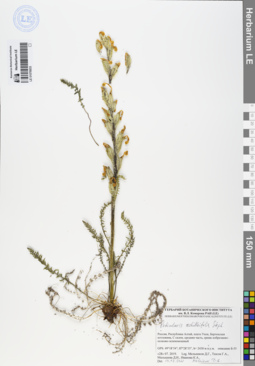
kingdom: Plantae
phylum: Tracheophyta
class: Magnoliopsida
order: Lamiales
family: Orobanchaceae
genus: Pedicularis
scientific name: Pedicularis achilleifolia
